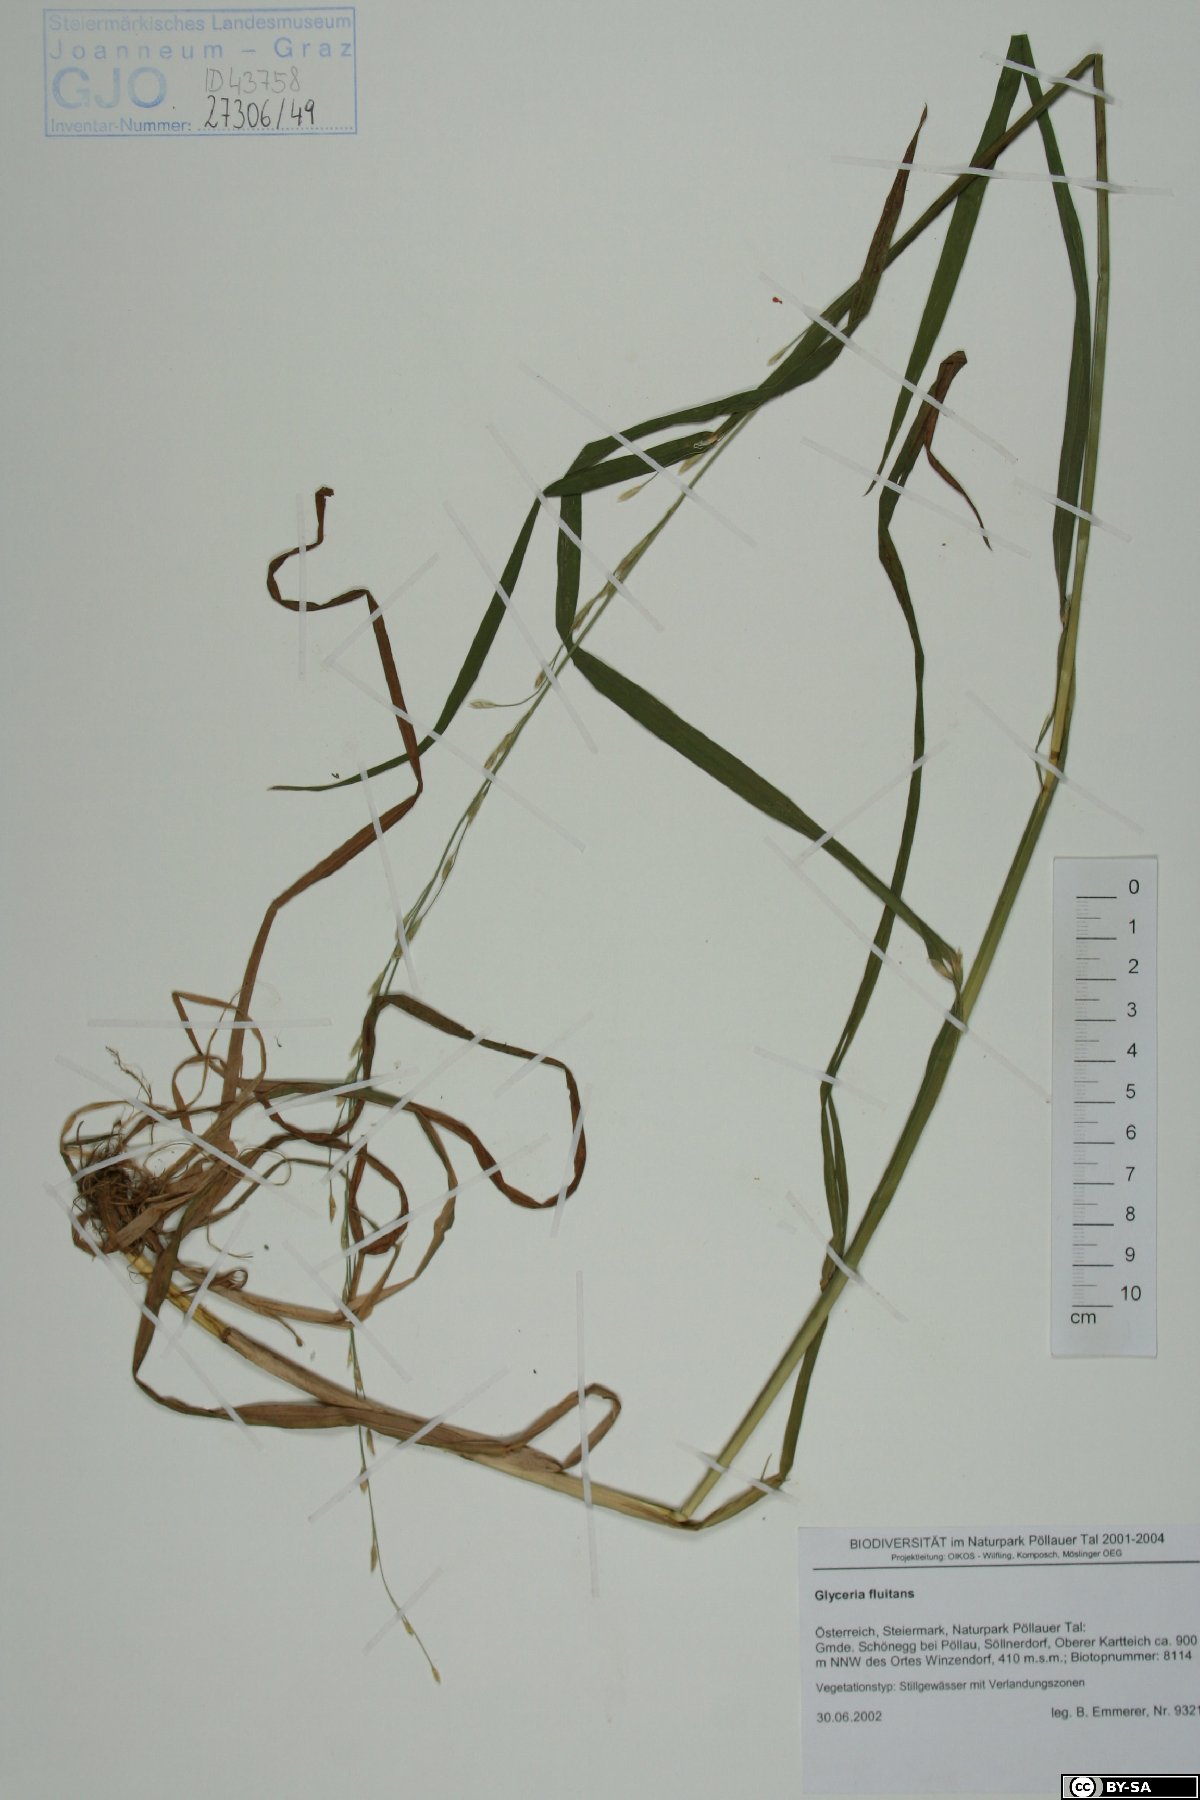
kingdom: Plantae
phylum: Tracheophyta
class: Liliopsida
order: Poales
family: Poaceae
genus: Glyceria
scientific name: Glyceria fluitans
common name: Floating sweet-grass
